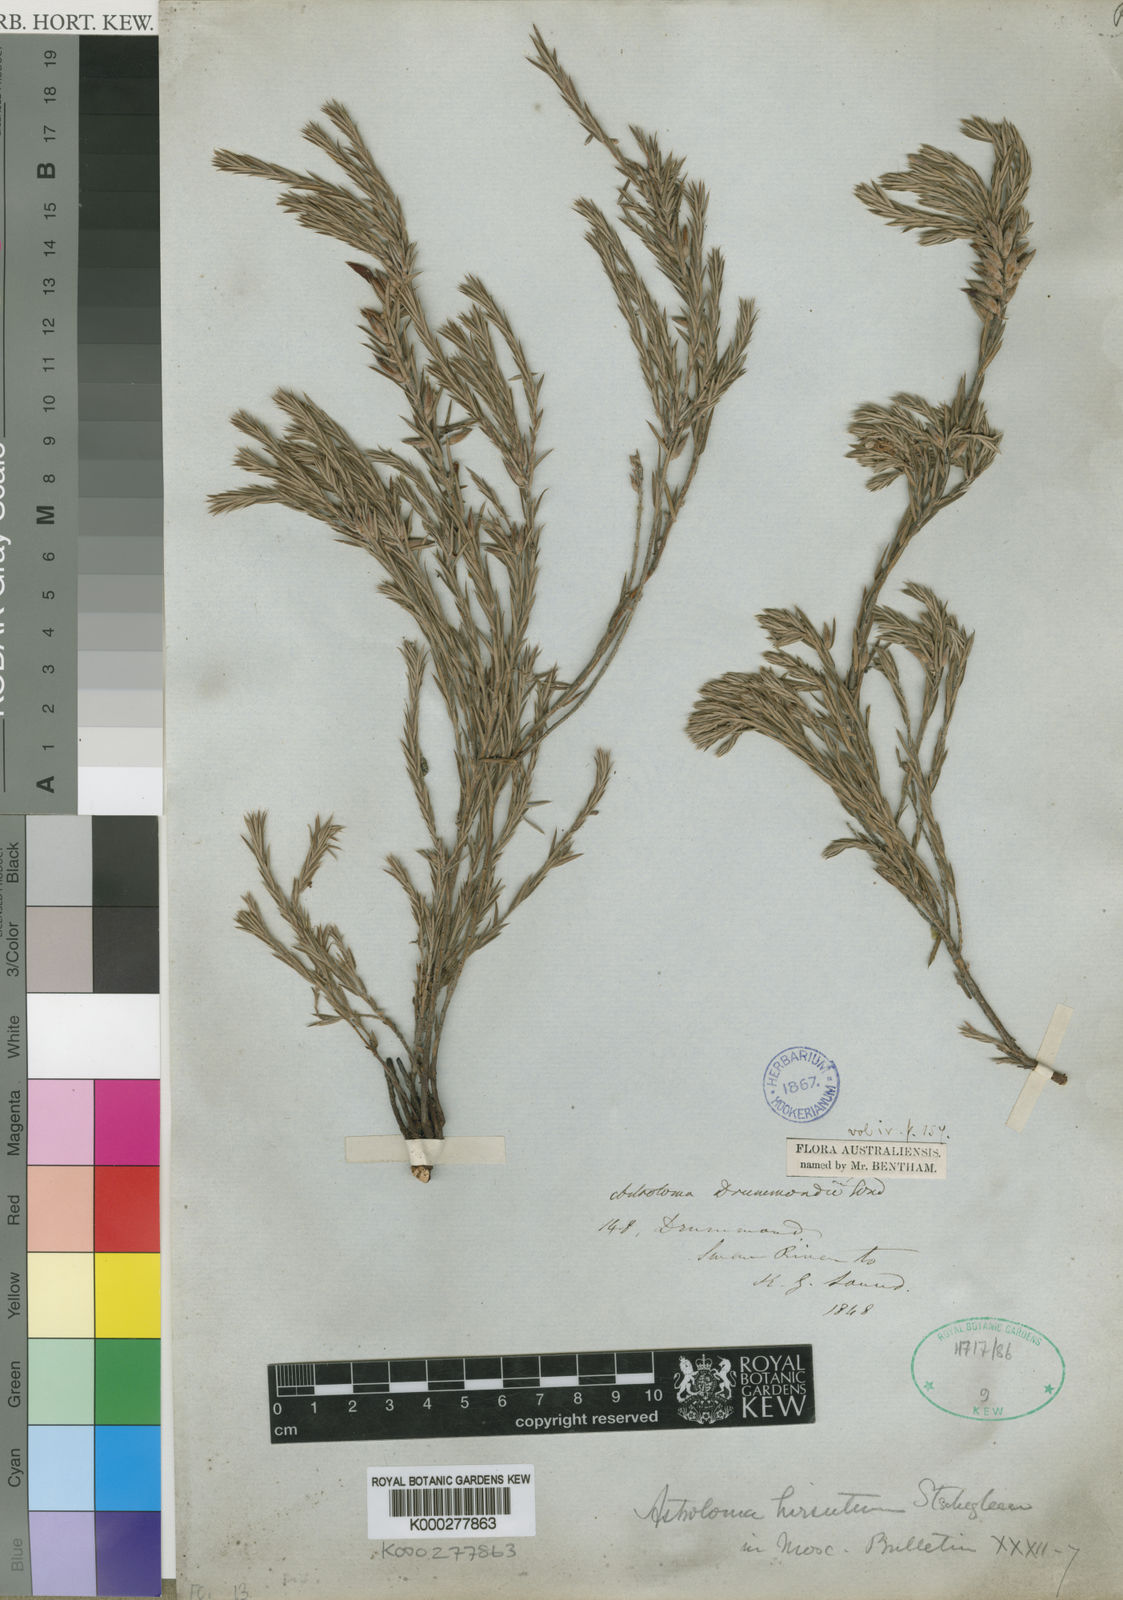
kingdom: Plantae
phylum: Tracheophyta
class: Magnoliopsida
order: Ericales
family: Ericaceae
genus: Styphelia
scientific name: Styphelia erectifolia
